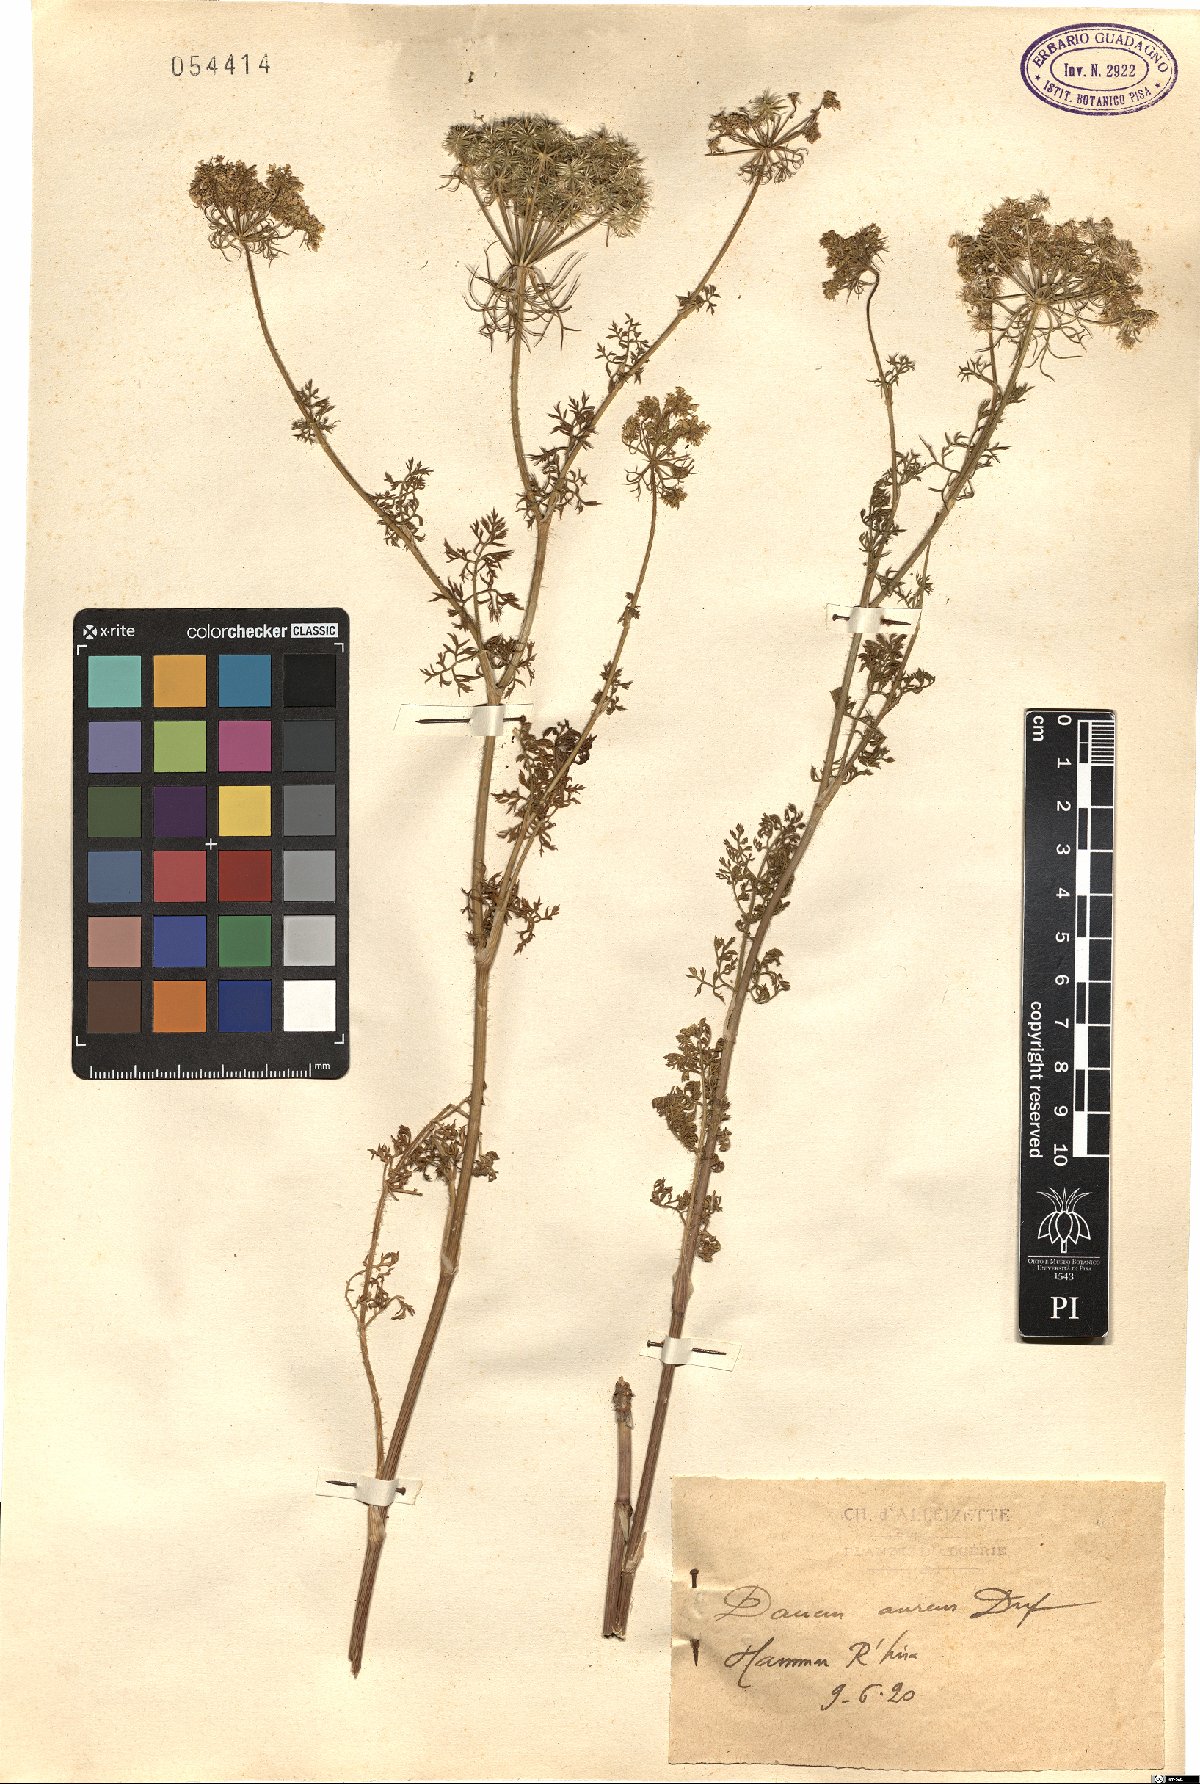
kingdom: Plantae
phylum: Tracheophyta
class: Magnoliopsida
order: Apiales
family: Apiaceae
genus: Daucus
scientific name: Daucus aureus
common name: Golden carrot
